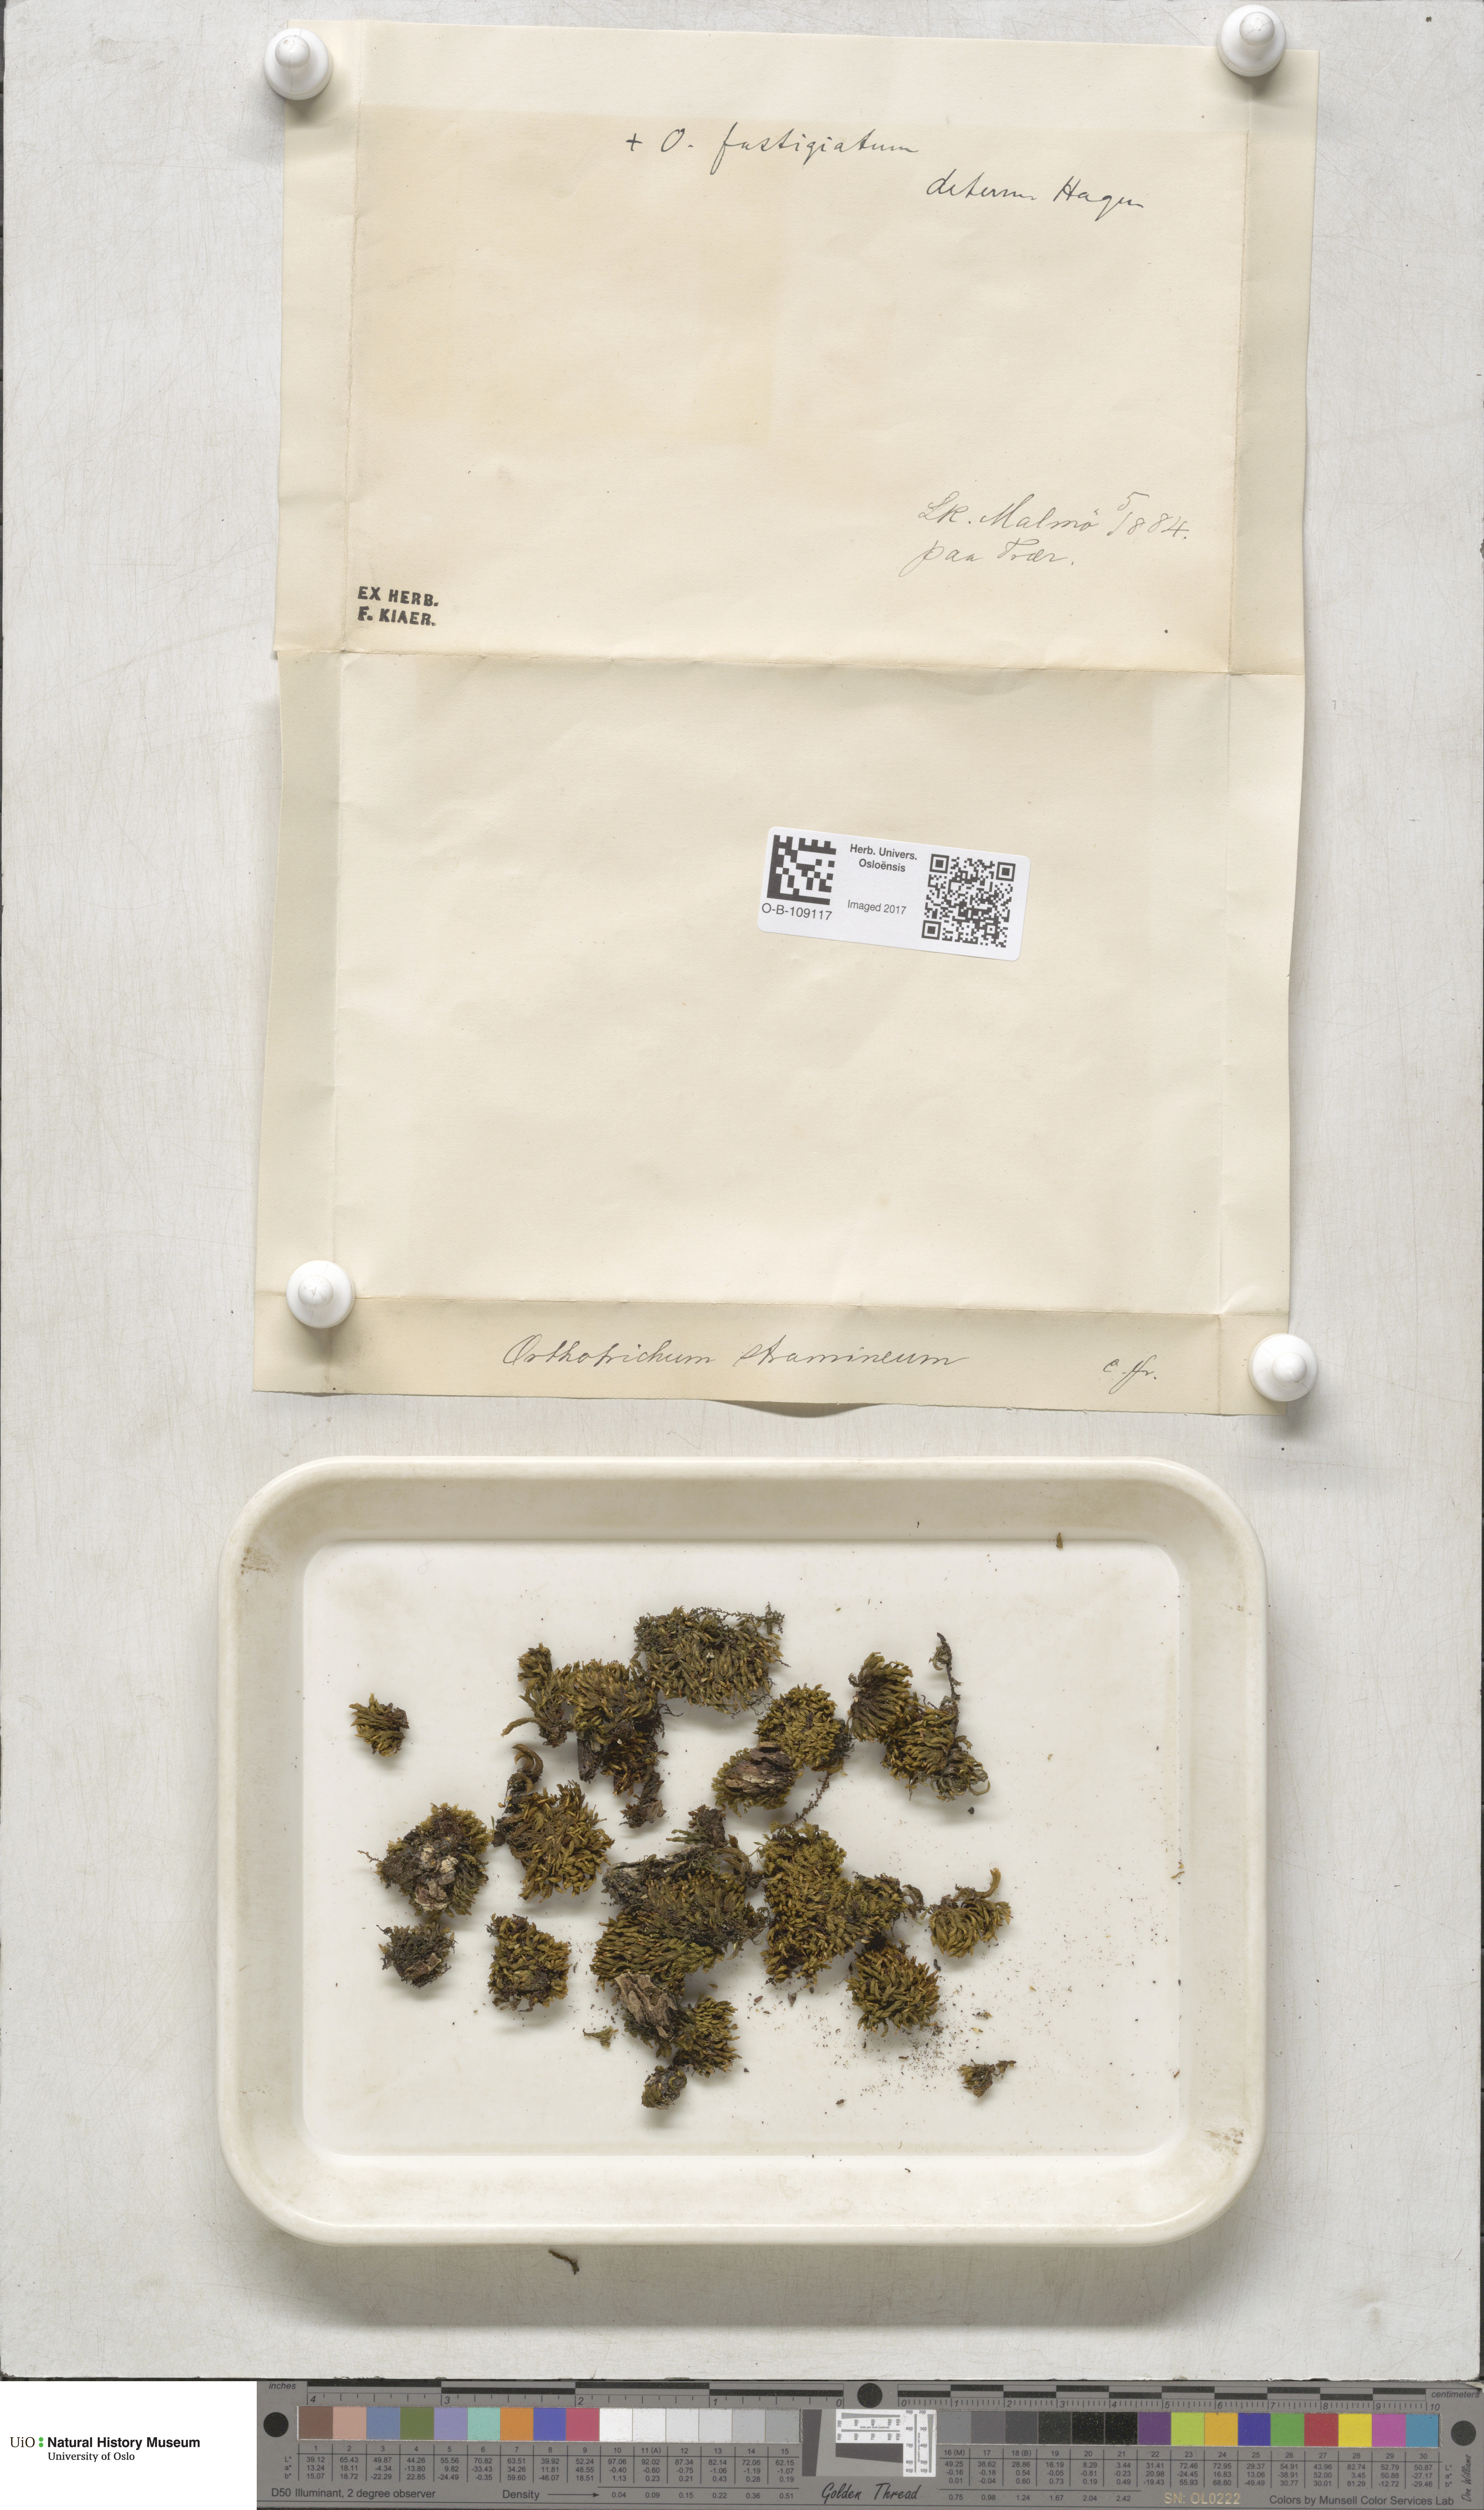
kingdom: Plantae
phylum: Bryophyta
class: Bryopsida
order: Orthotrichales
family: Orthotrichaceae
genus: Orthotrichum
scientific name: Orthotrichum stramineum
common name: Straw bristle-moss
